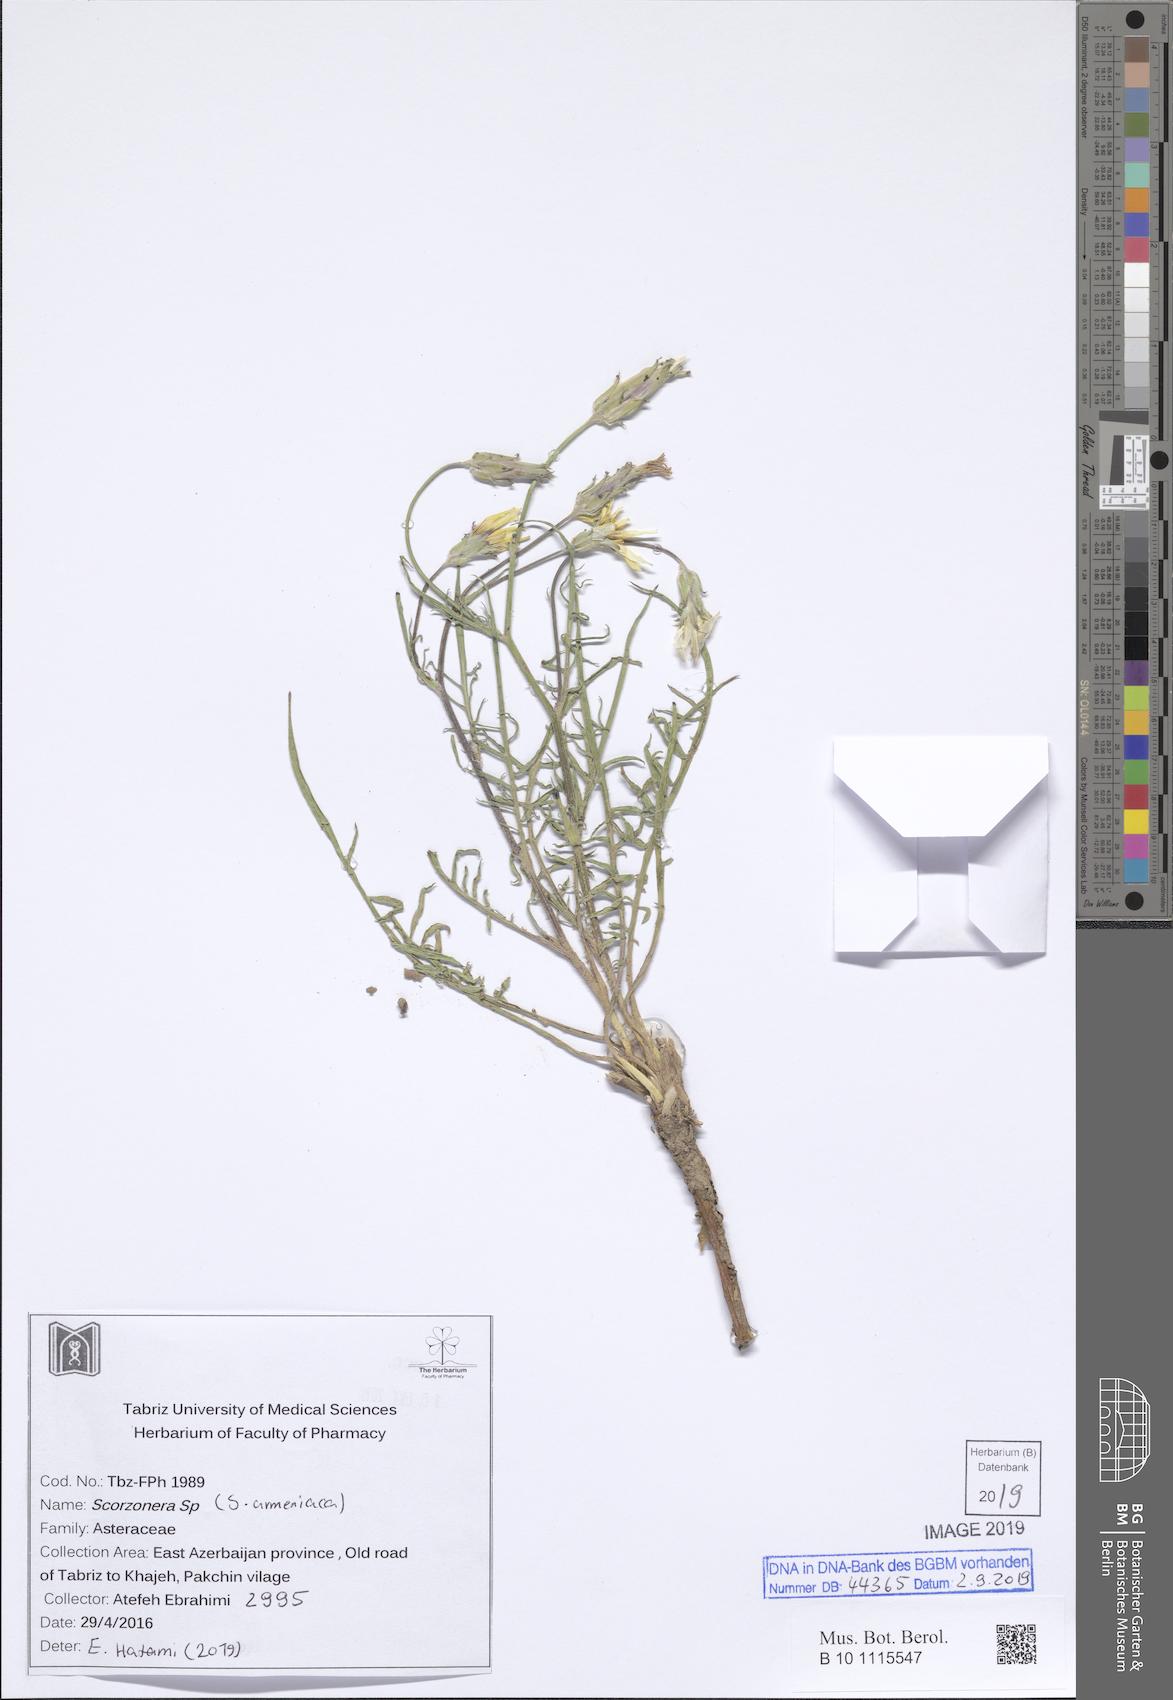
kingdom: Plantae
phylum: Tracheophyta
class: Magnoliopsida
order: Asterales
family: Asteraceae
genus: Scorzonera
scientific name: Scorzonera armeniaca
